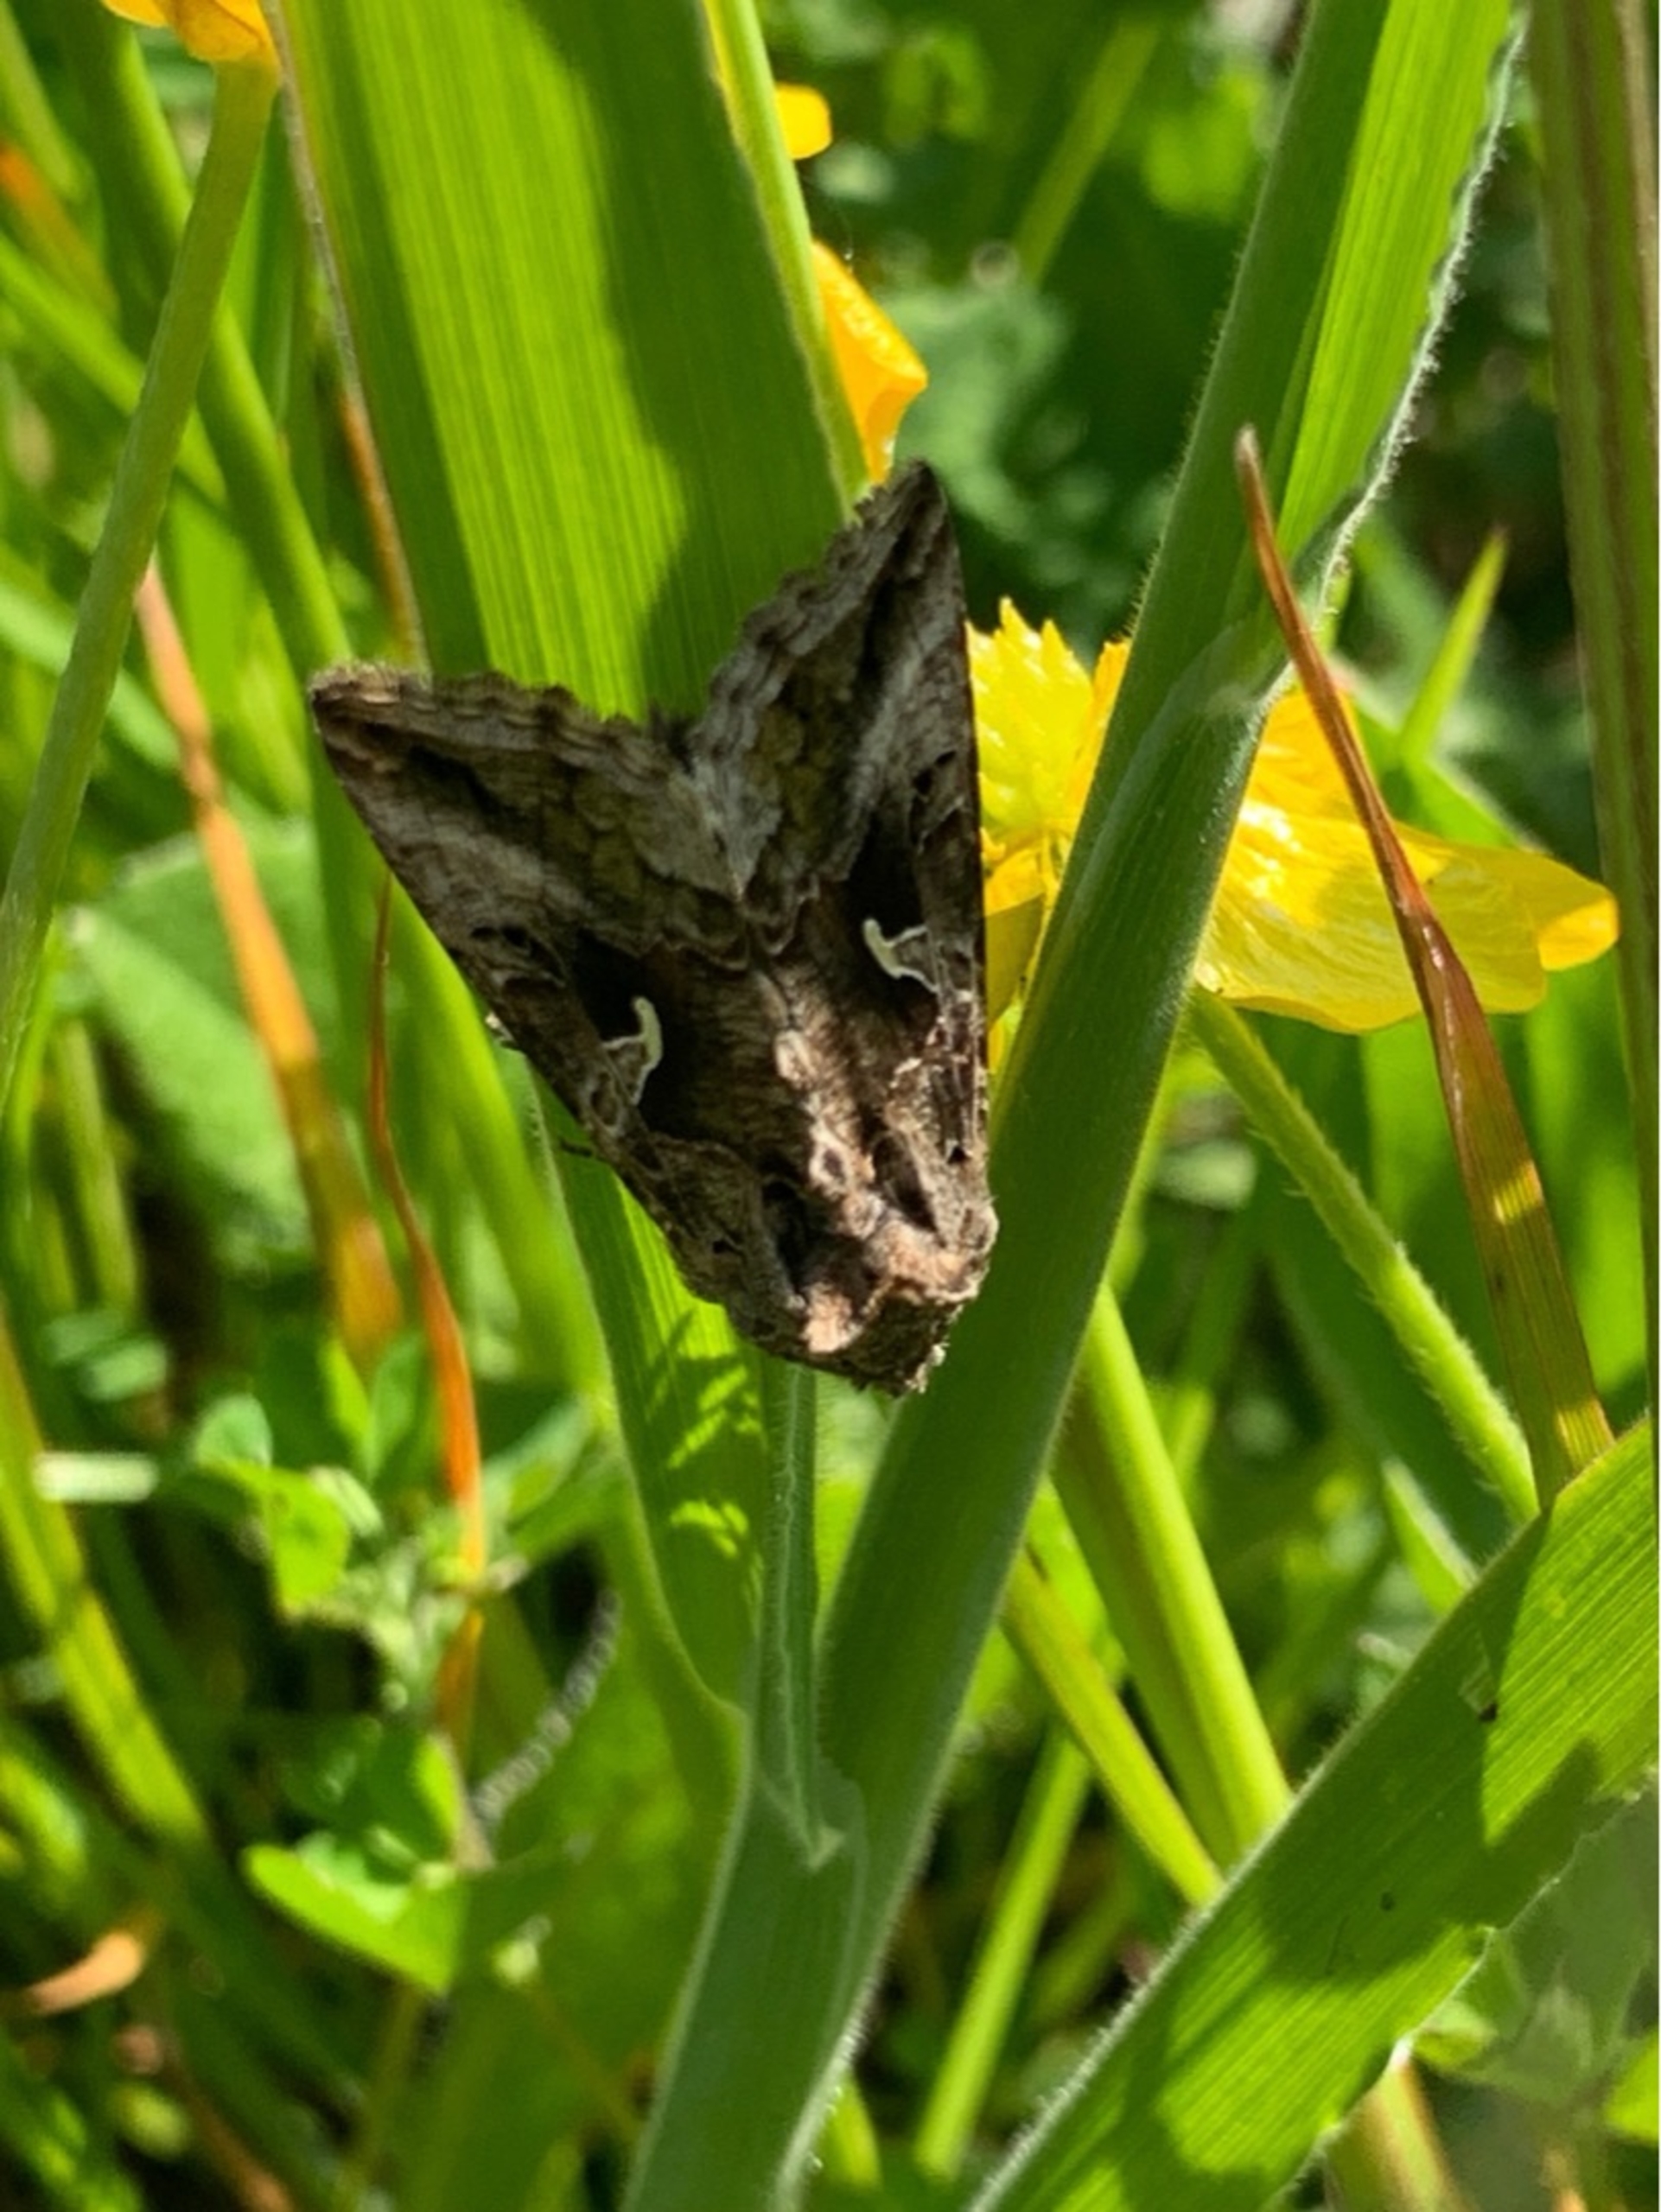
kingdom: Animalia
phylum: Arthropoda
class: Insecta
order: Lepidoptera
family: Noctuidae
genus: Autographa
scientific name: Autographa gamma
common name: Gammaugle
